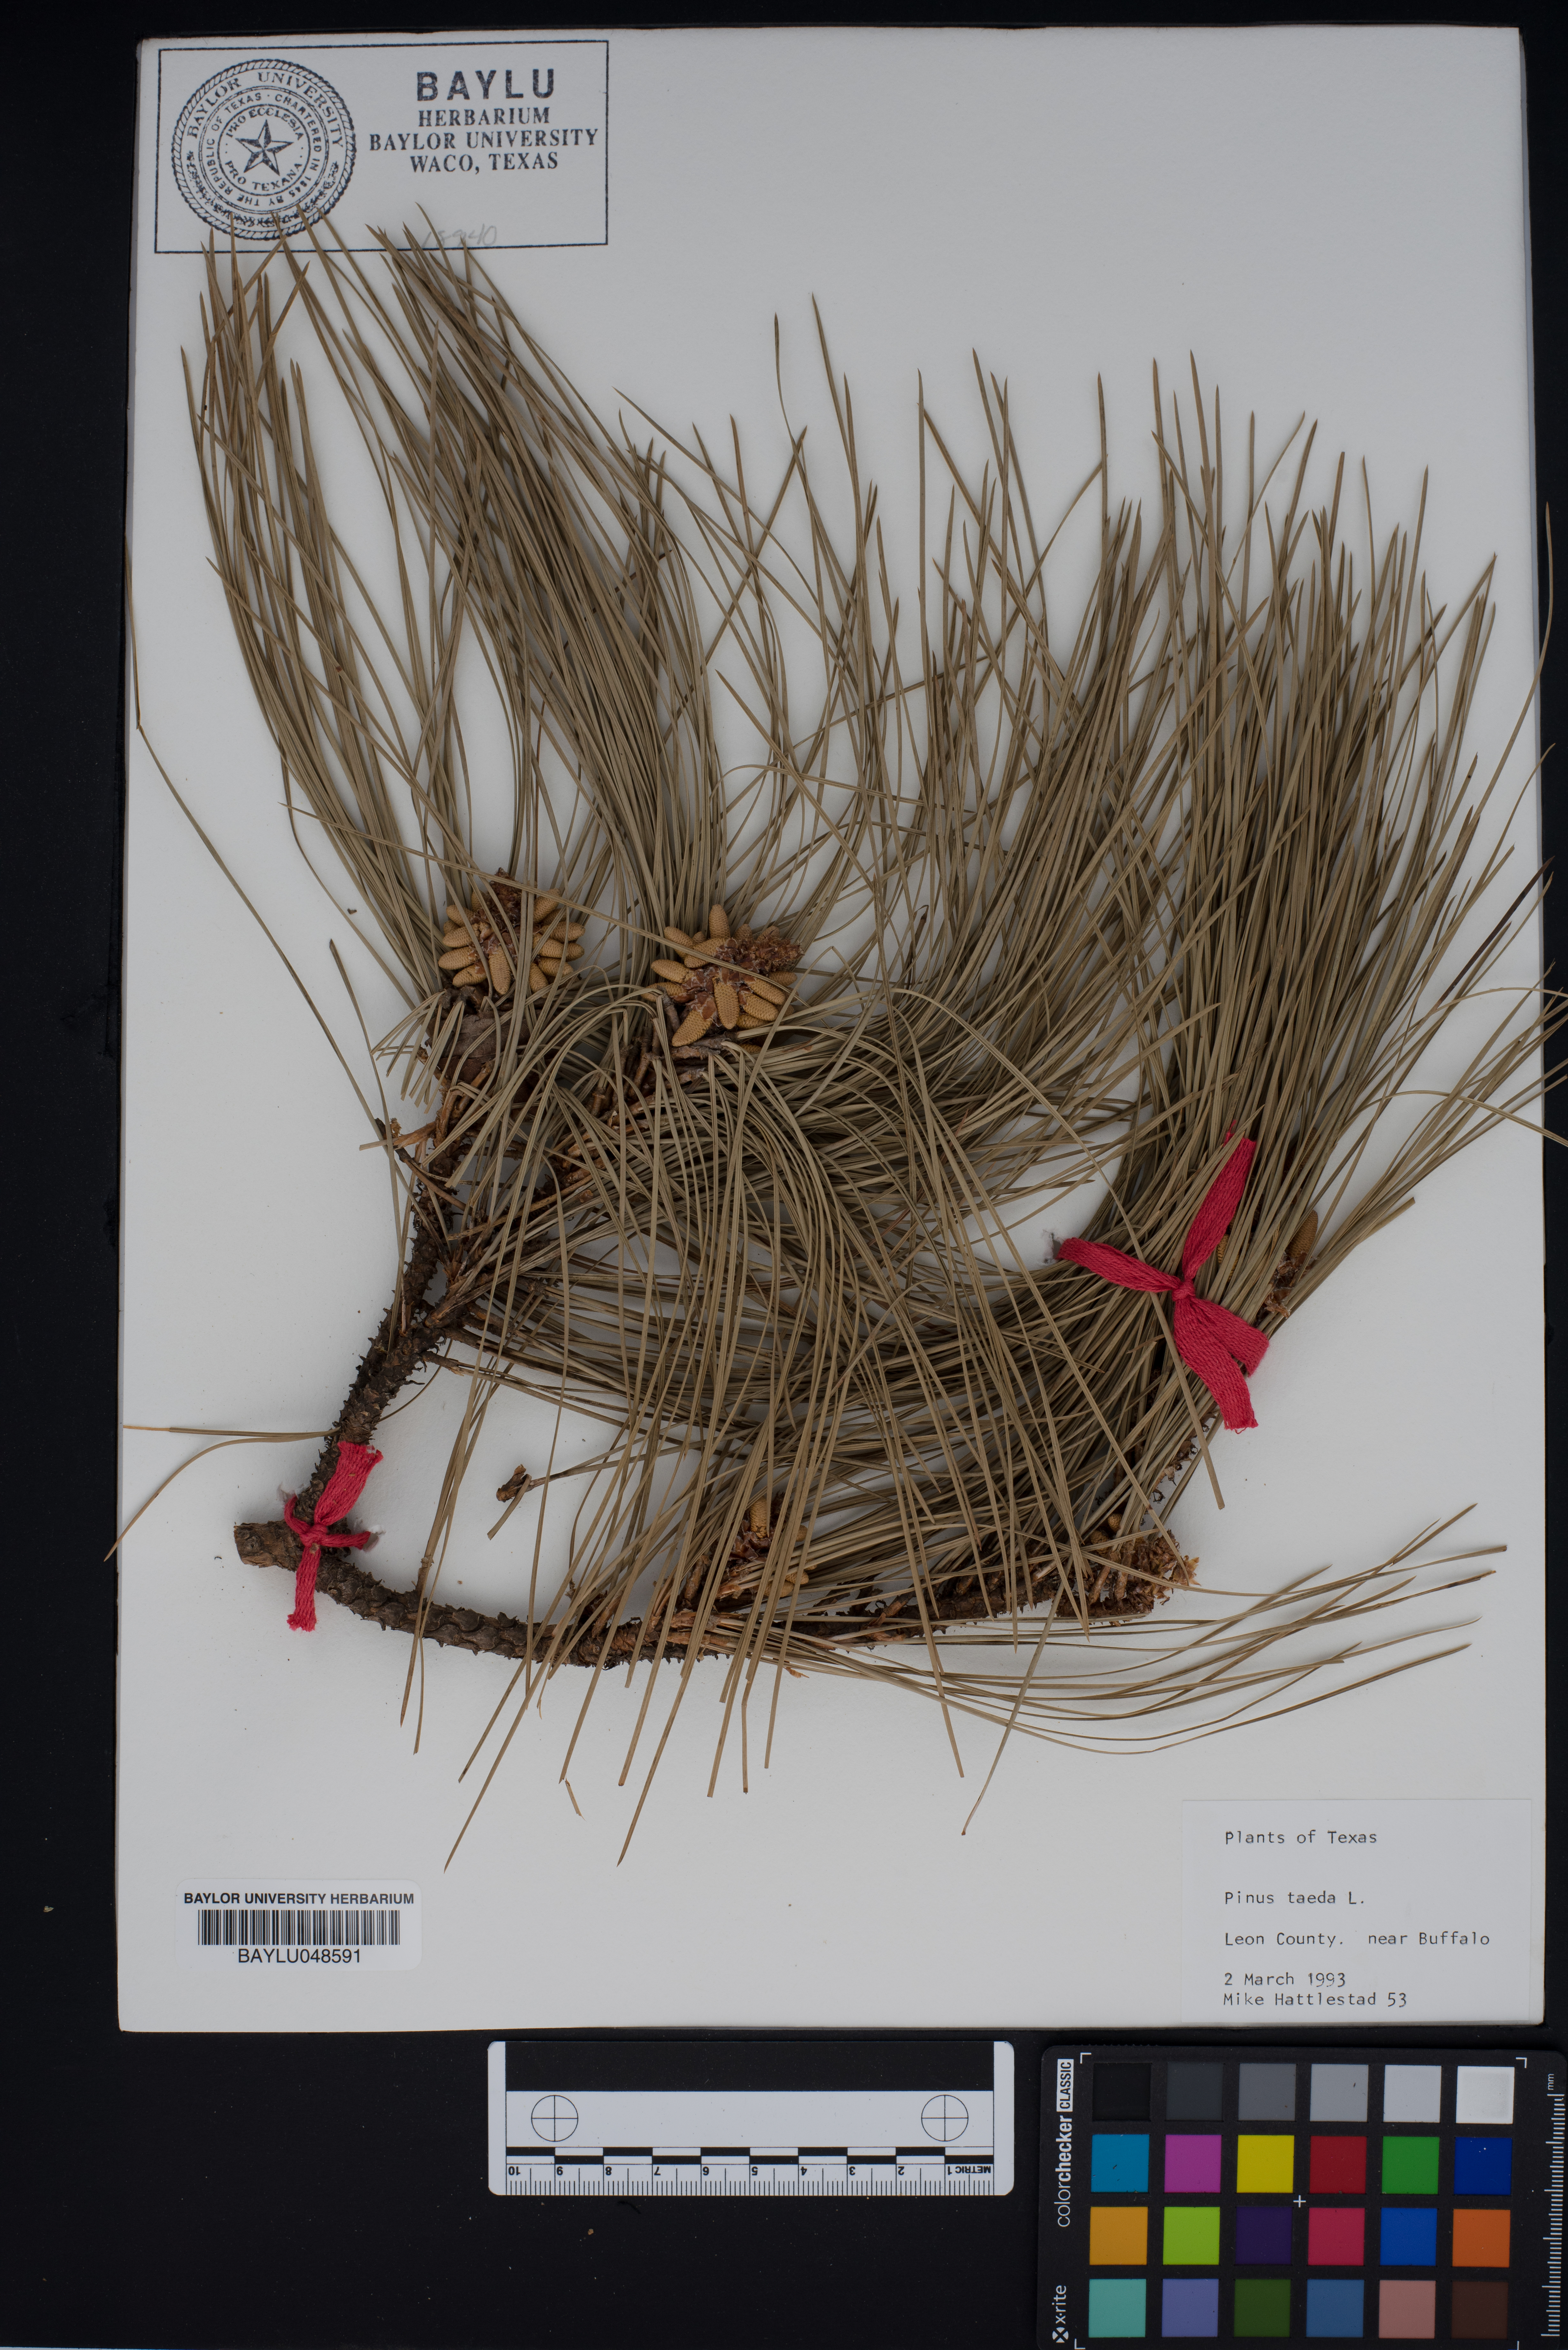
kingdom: Plantae
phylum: Tracheophyta
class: Pinopsida
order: Pinales
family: Pinaceae
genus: Pinus
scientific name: Pinus taeda
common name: Loblolly pine
